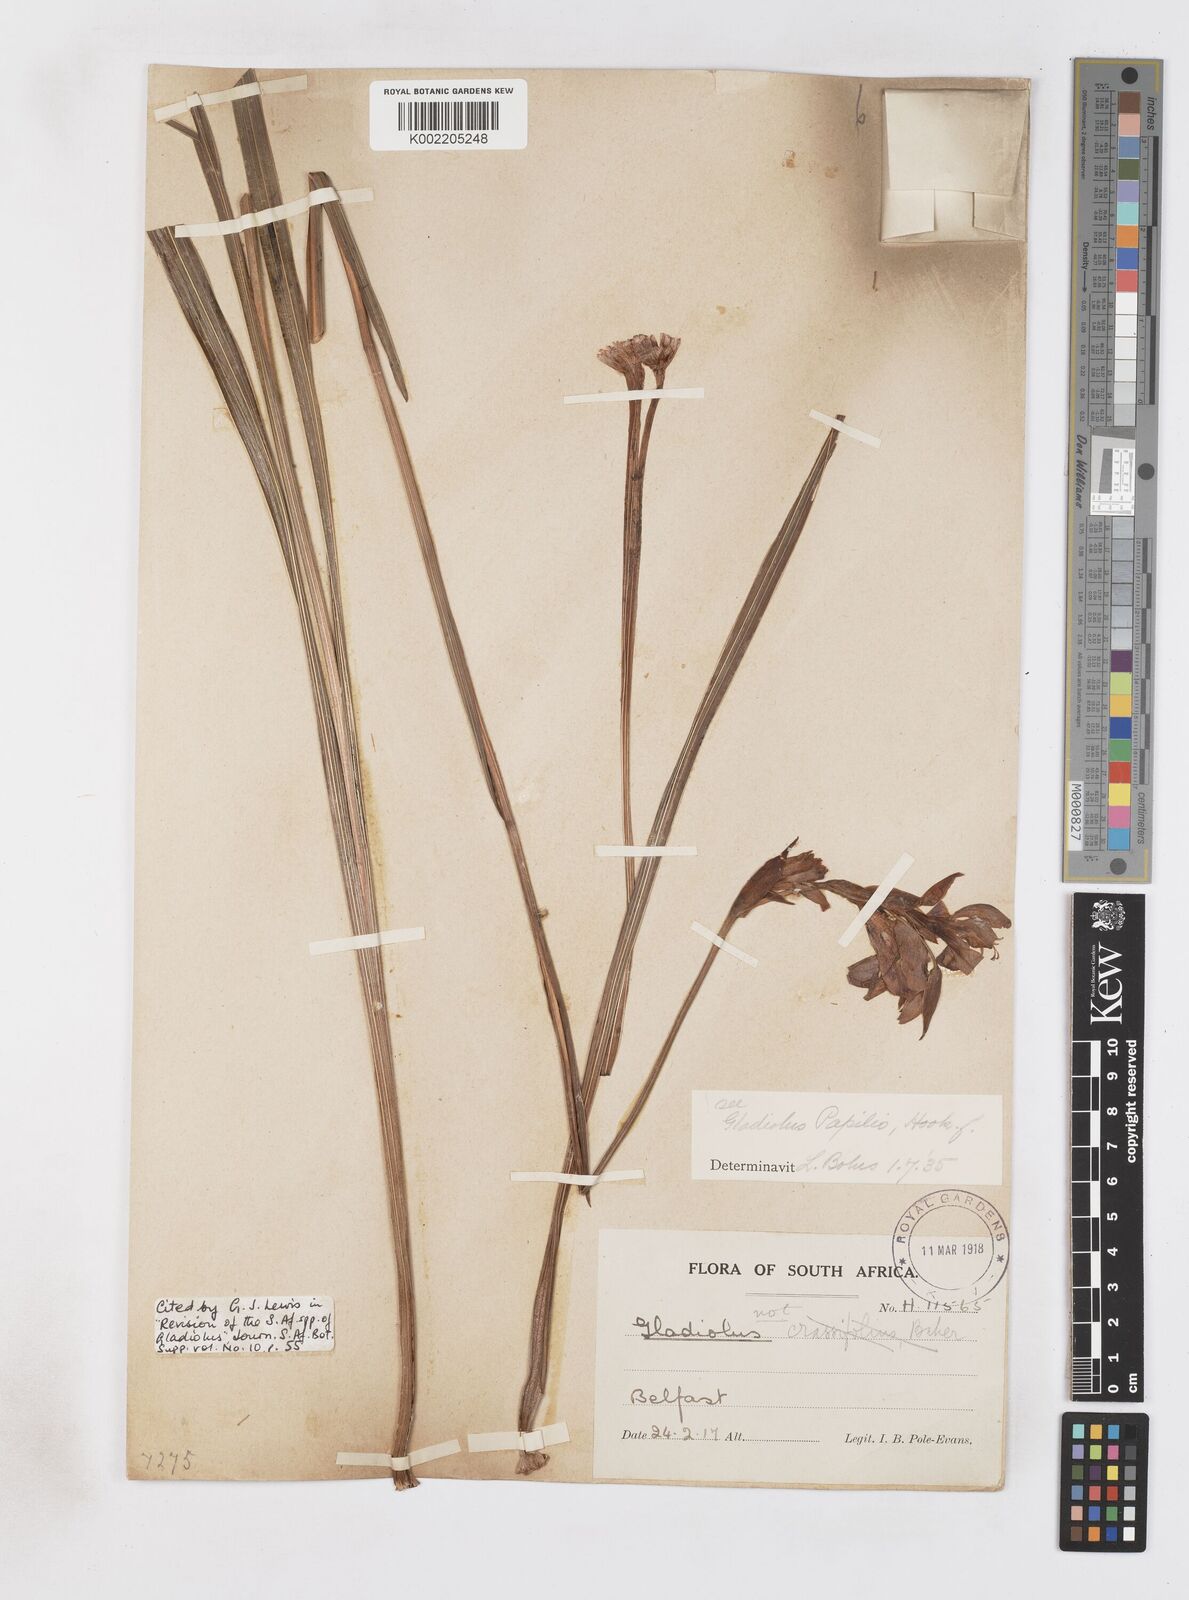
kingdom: Plantae
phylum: Tracheophyta
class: Liliopsida
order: Asparagales
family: Iridaceae
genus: Gladiolus
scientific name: Gladiolus papilio
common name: Goldblotch gladiolus
